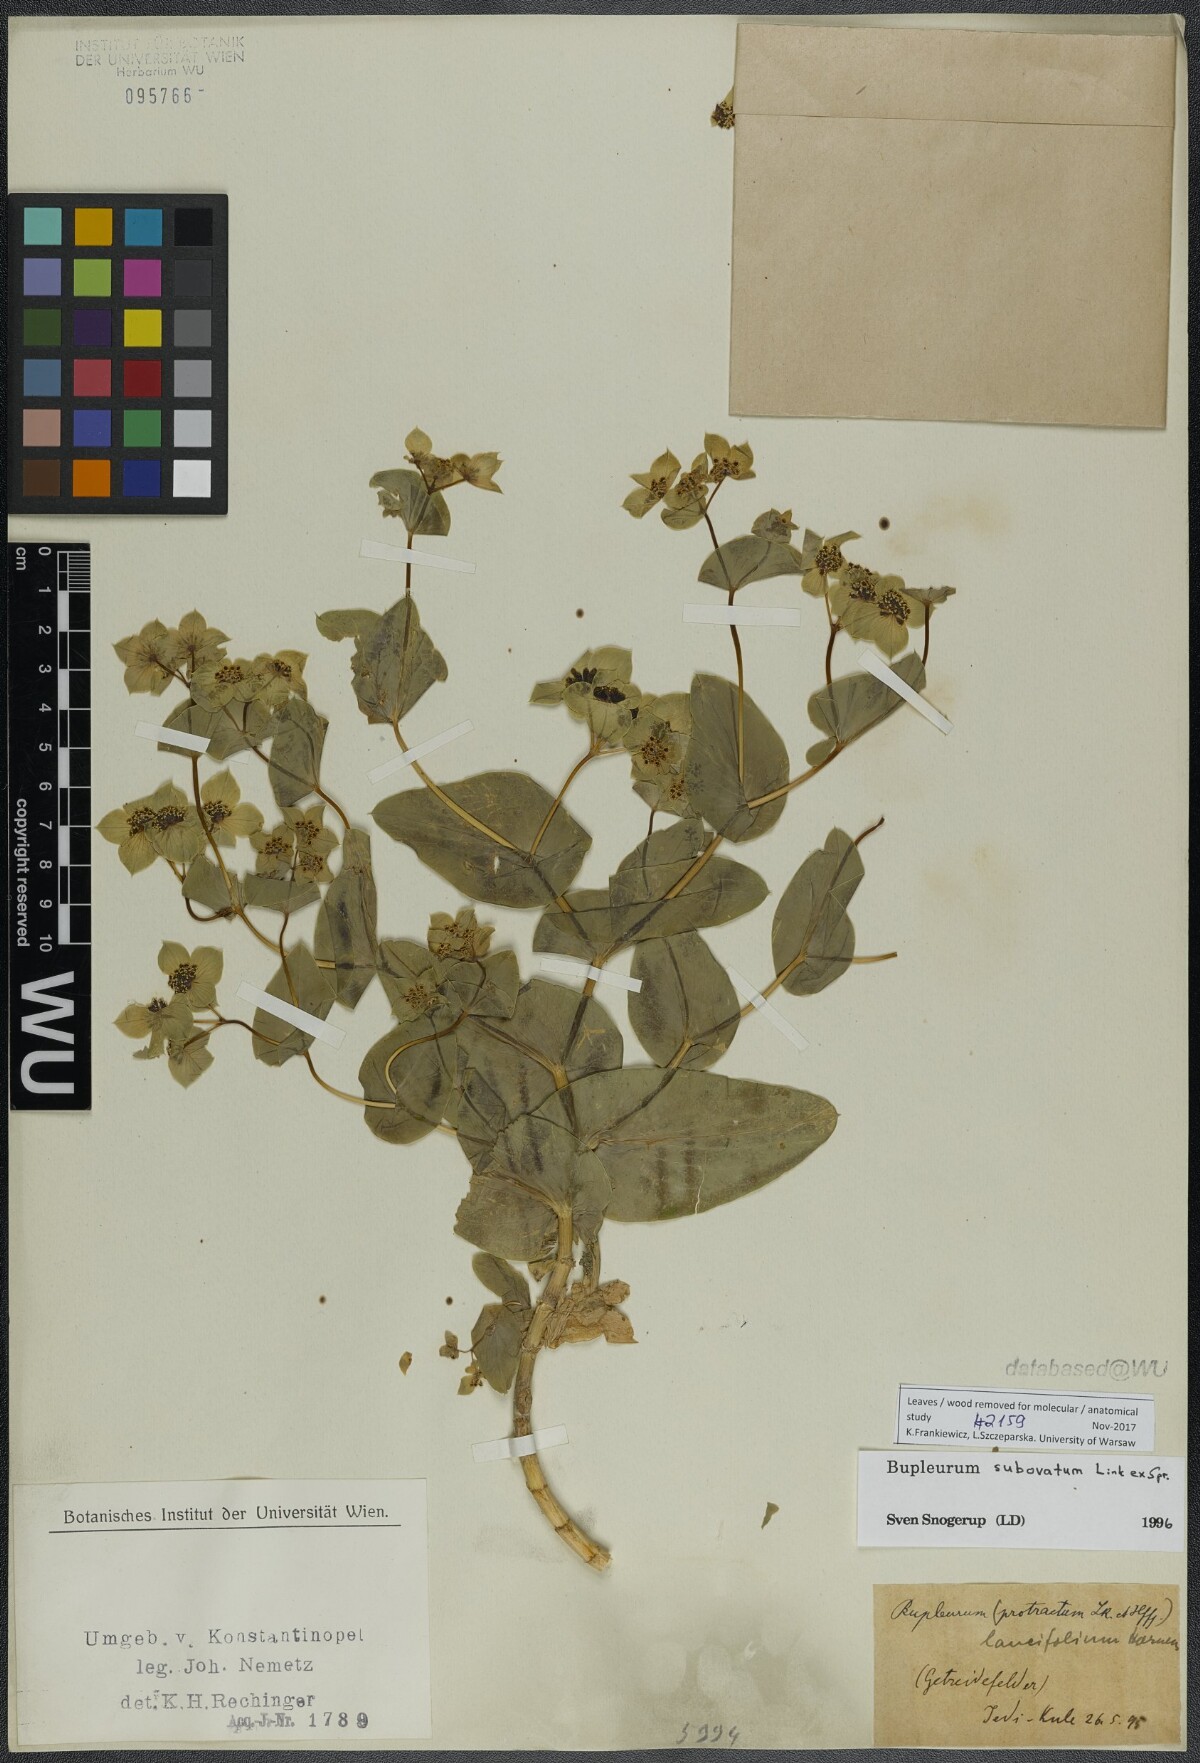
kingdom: Plantae
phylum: Tracheophyta
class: Magnoliopsida
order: Apiales
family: Apiaceae
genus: Bupleurum
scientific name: Bupleurum subovatum
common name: False thorow-wax
